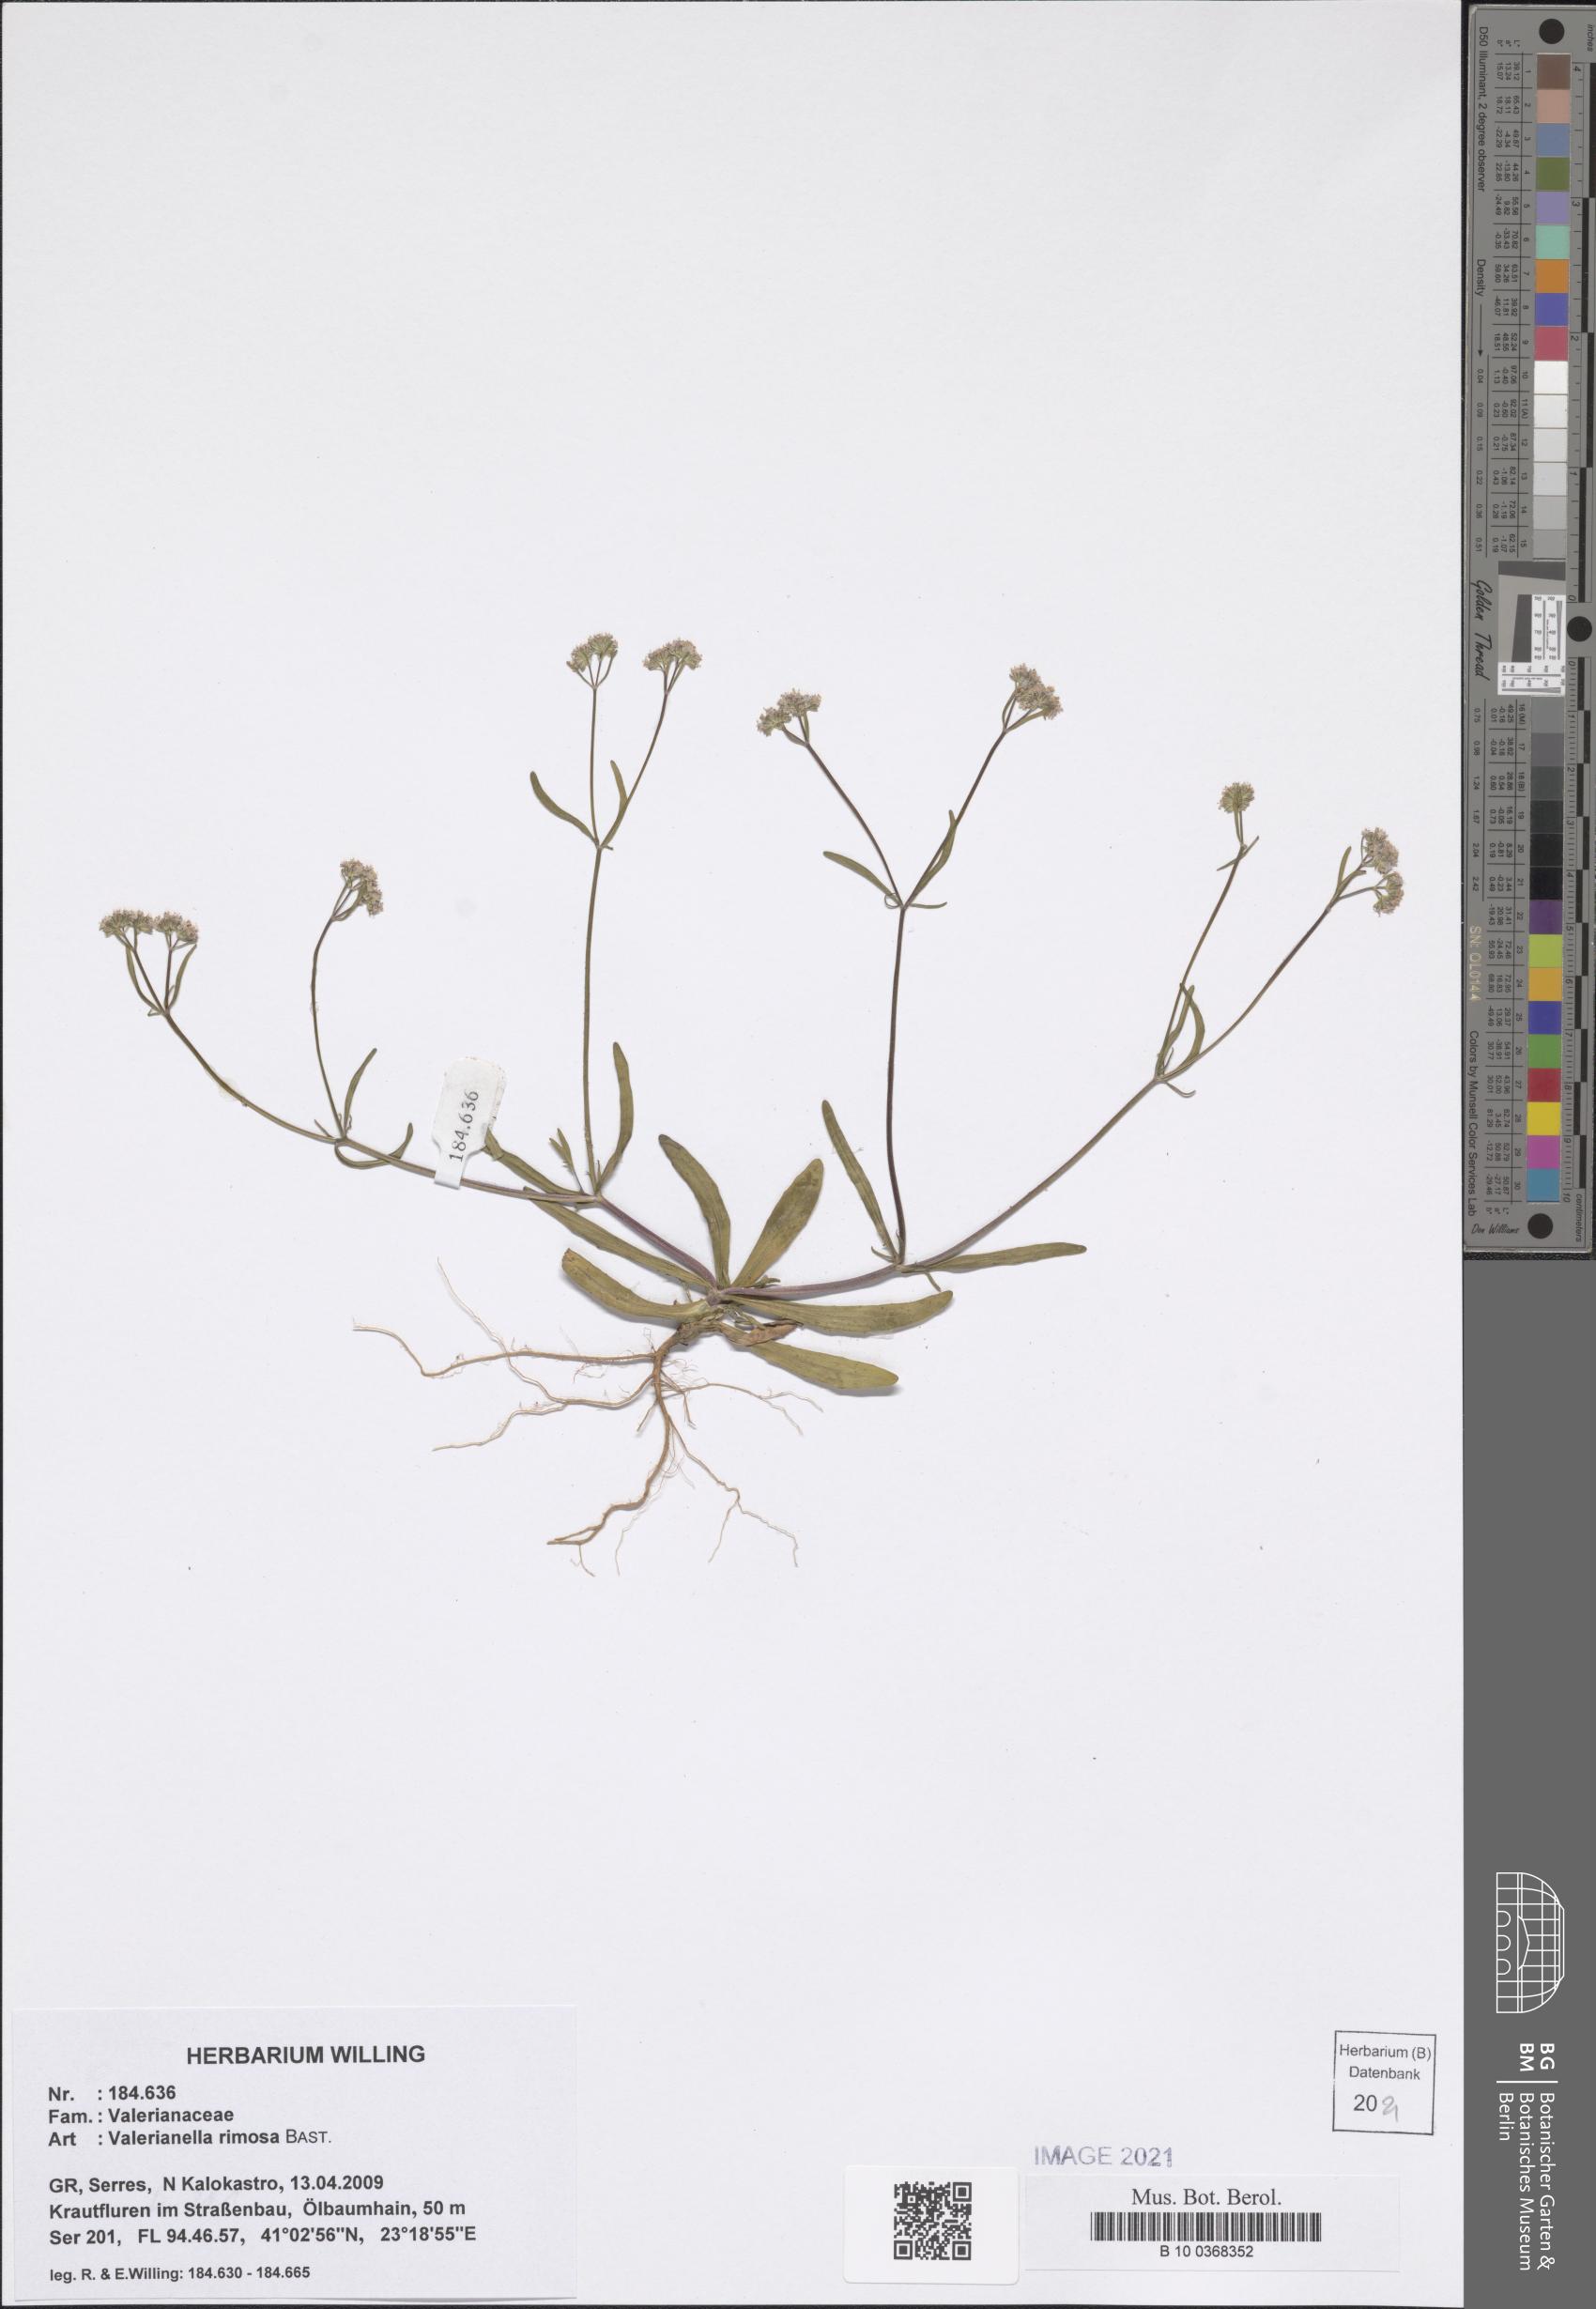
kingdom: Plantae
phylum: Tracheophyta
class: Magnoliopsida
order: Dipsacales
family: Caprifoliaceae
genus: Valerianella
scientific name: Valerianella rimosa
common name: Broad-fruited cornsalad
